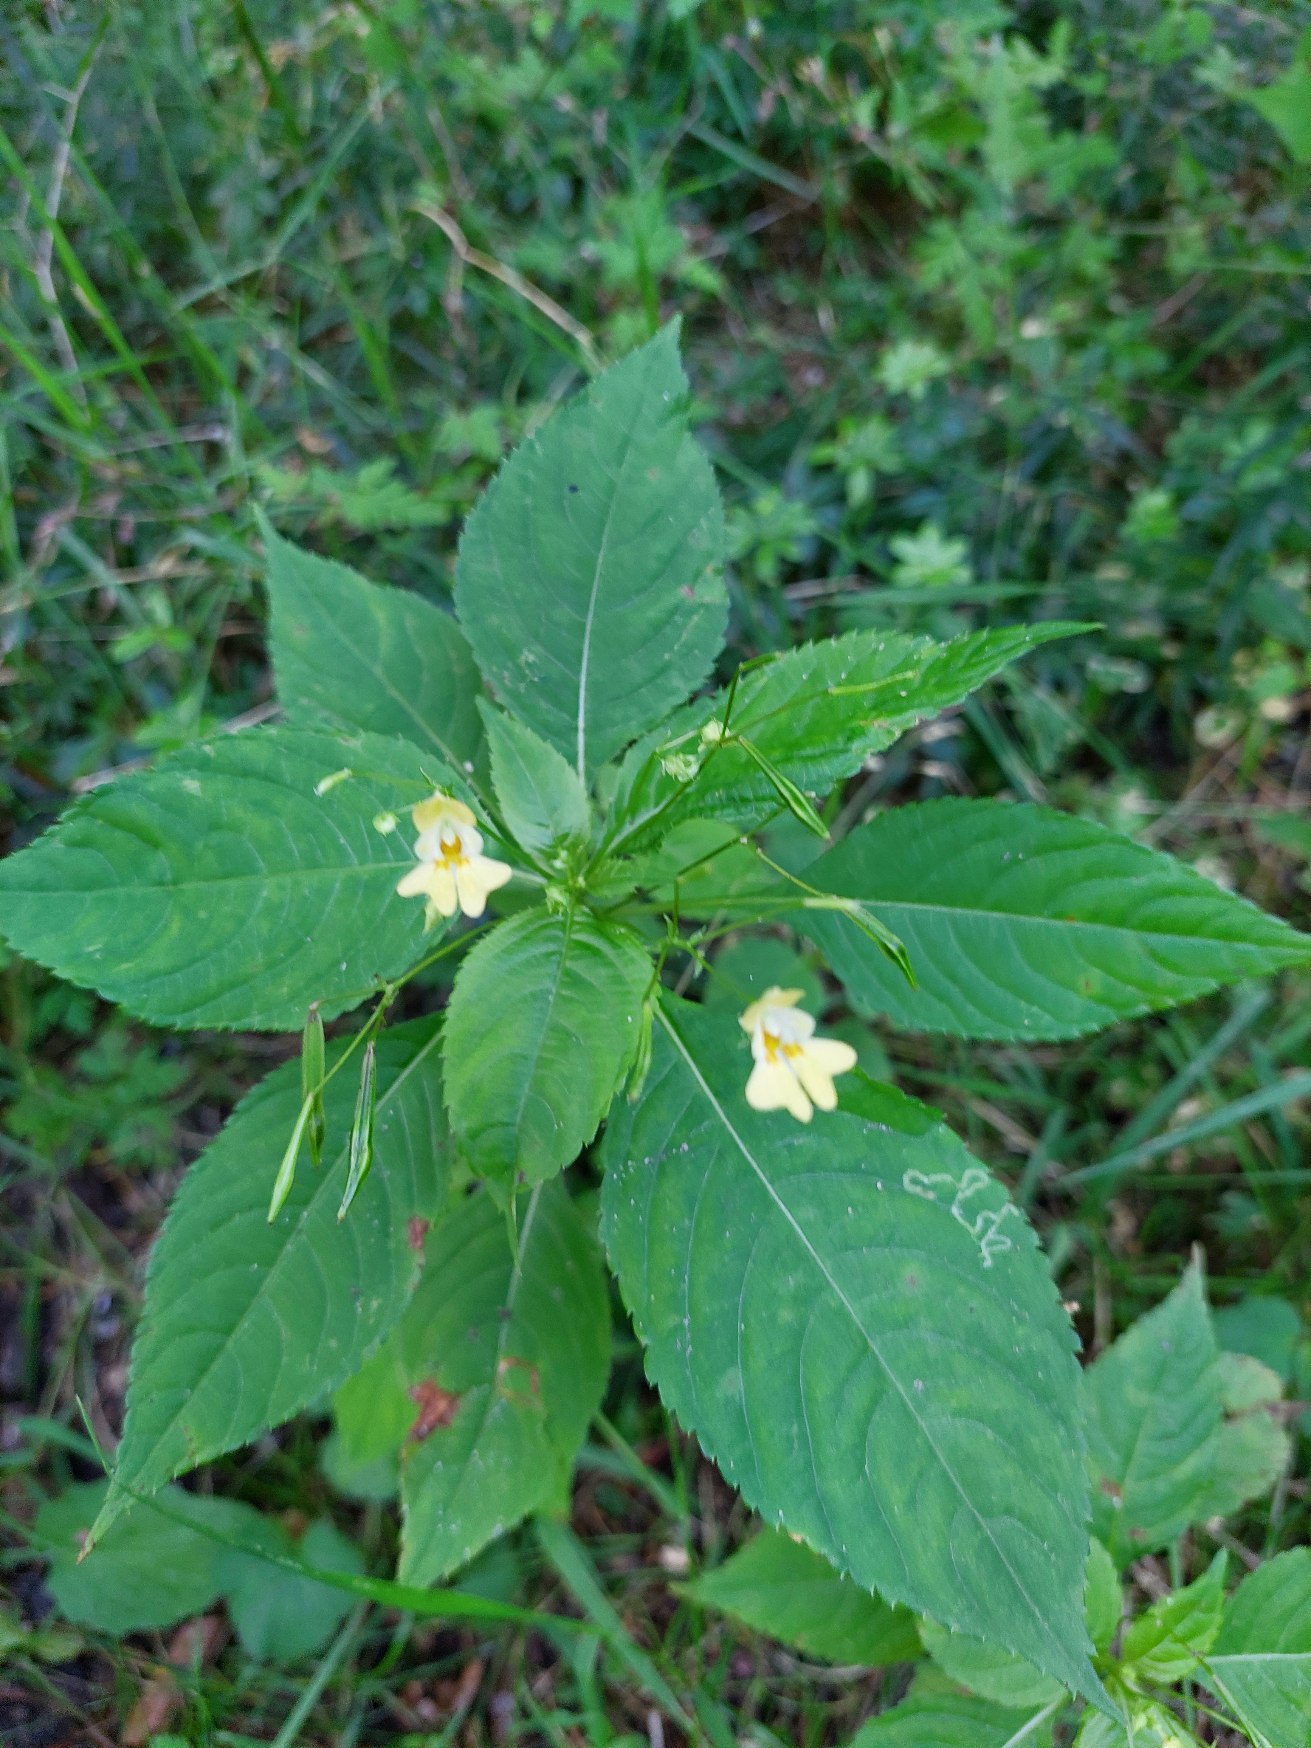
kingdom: Plantae
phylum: Tracheophyta
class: Magnoliopsida
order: Ericales
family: Balsaminaceae
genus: Impatiens
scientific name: Impatiens parviflora
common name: Småblomstret balsamin
